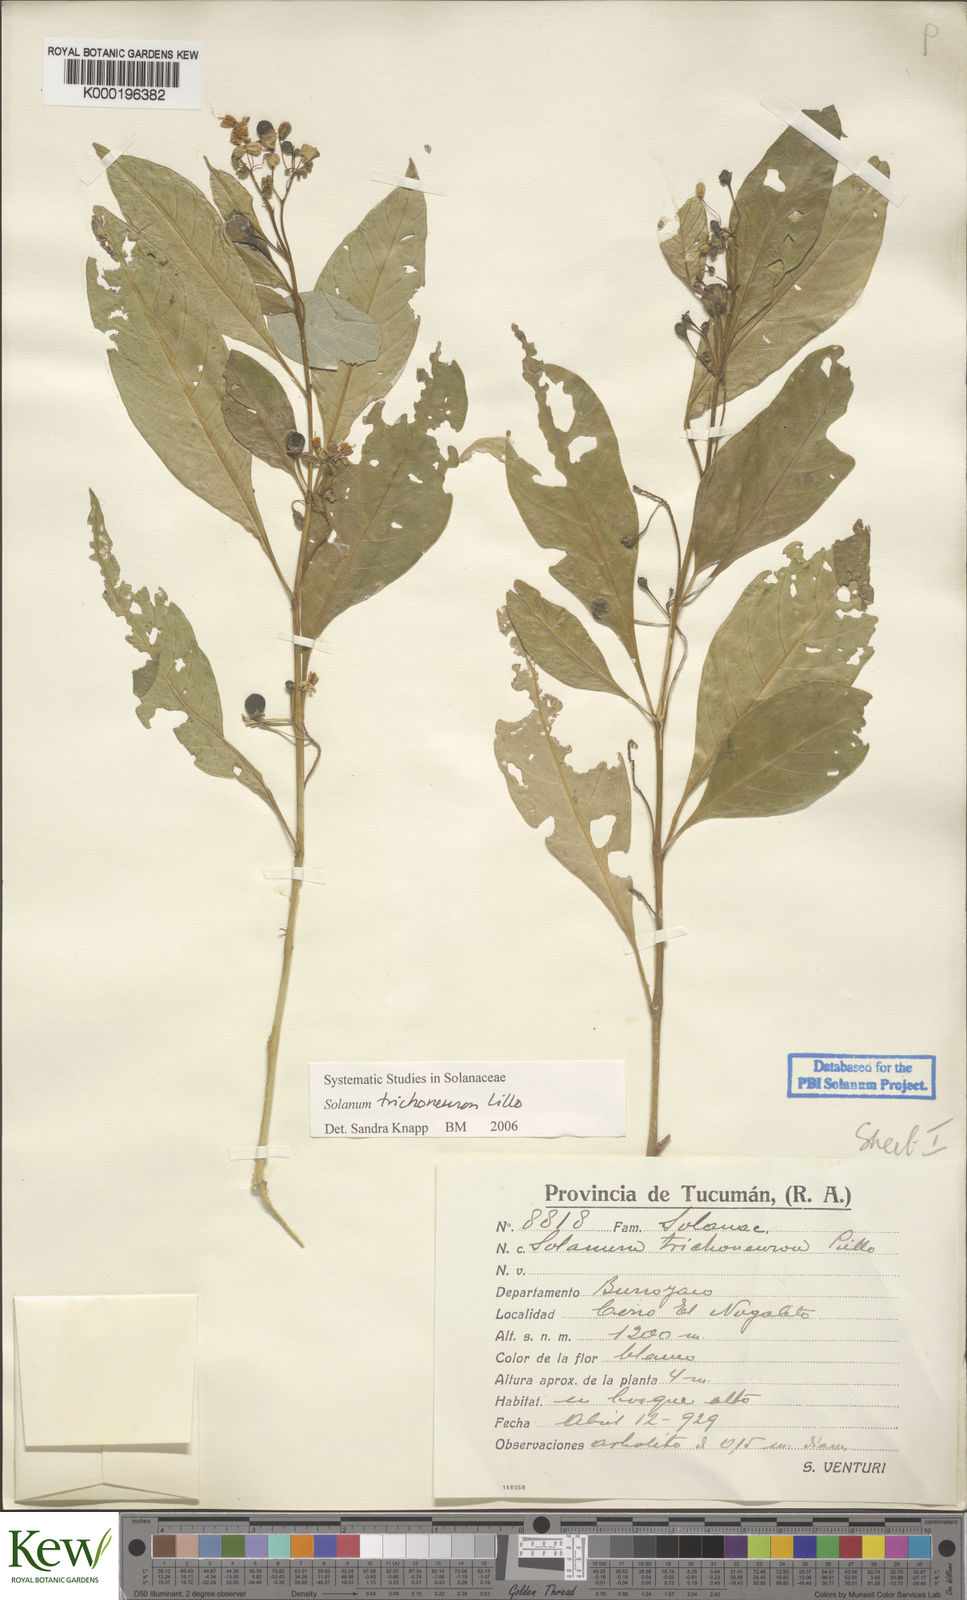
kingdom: Plantae
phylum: Tracheophyta
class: Magnoliopsida
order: Solanales
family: Solanaceae
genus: Solanum
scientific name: Solanum oblongum
